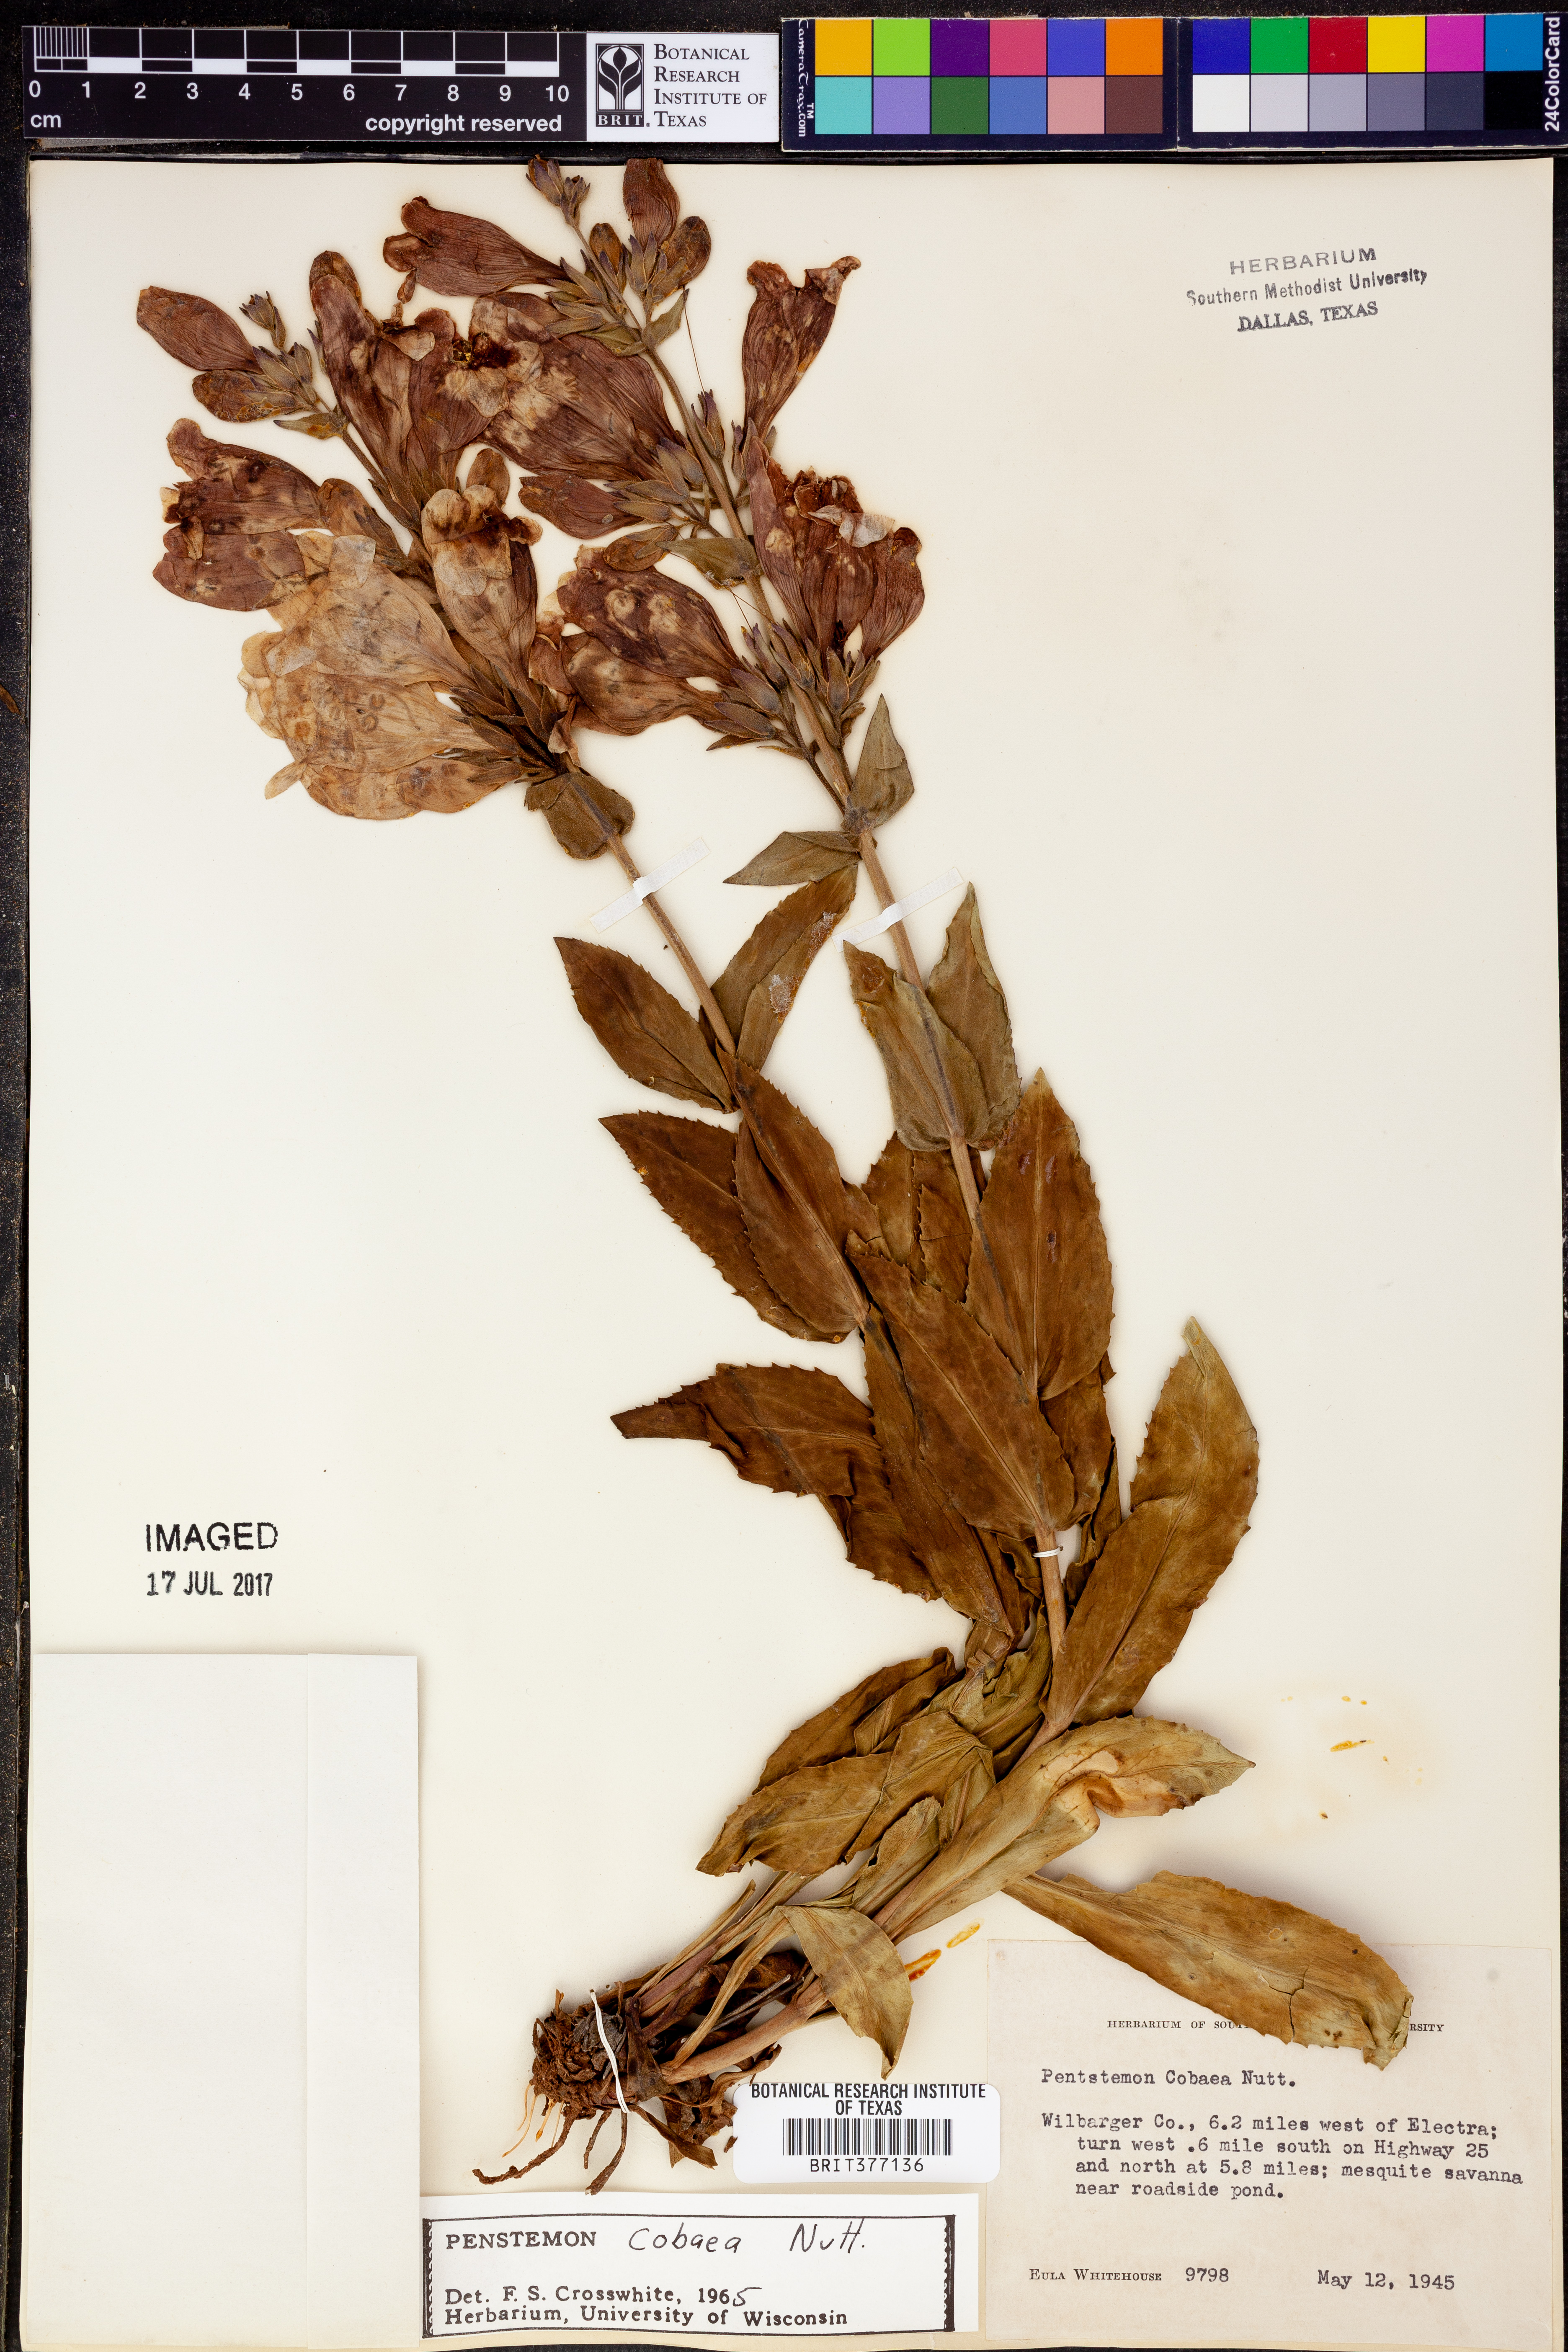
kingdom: Plantae
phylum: Tracheophyta
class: Magnoliopsida
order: Lamiales
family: Plantaginaceae
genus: Penstemon
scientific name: Penstemon cobaea
